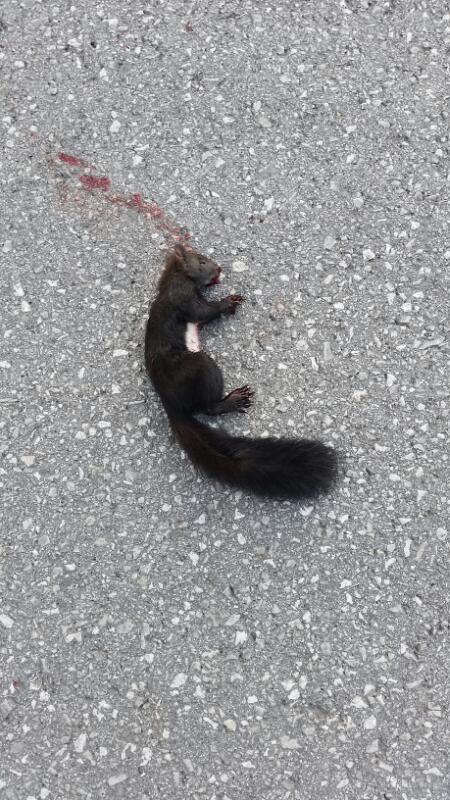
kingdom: Animalia
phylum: Chordata
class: Mammalia
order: Rodentia
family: Sciuridae
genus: Sciurus
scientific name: Sciurus vulgaris
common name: Eurasian red squirrel
